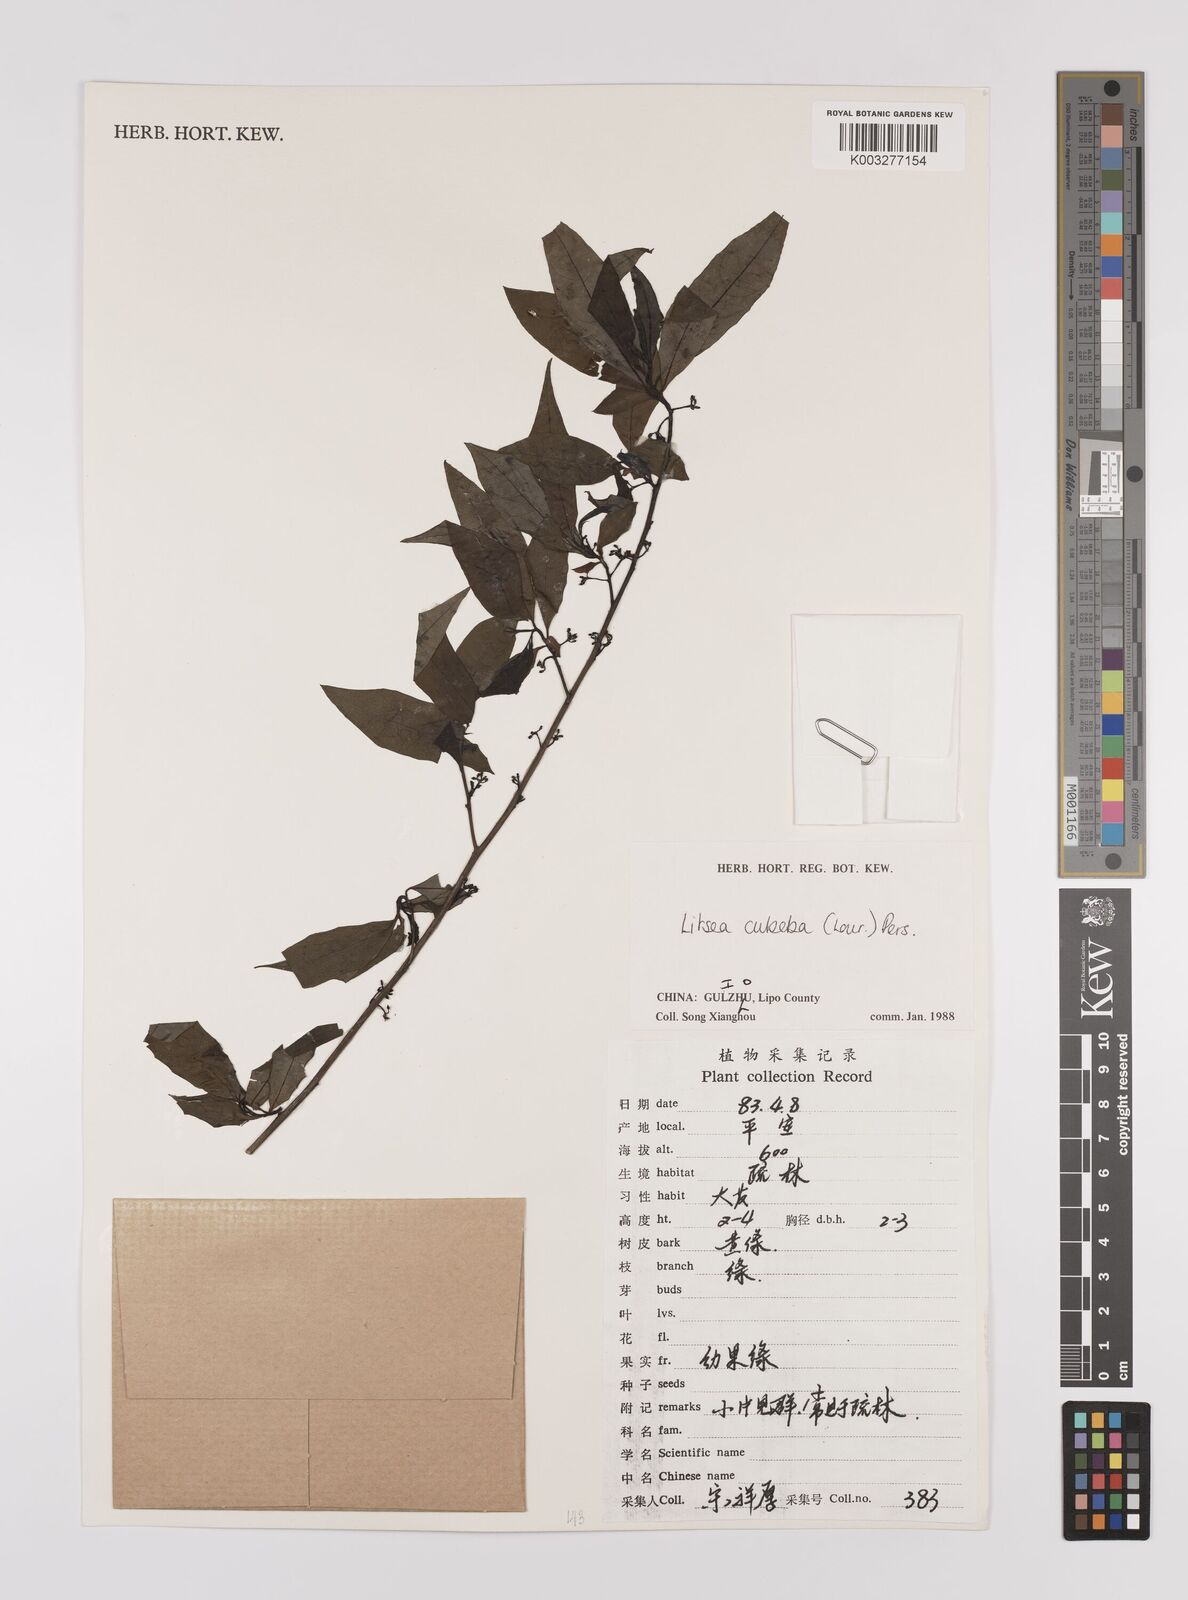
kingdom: Plantae
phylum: Tracheophyta
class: Magnoliopsida
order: Laurales
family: Lauraceae
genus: Litsea
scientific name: Litsea cubeba
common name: Mountain-pepper
